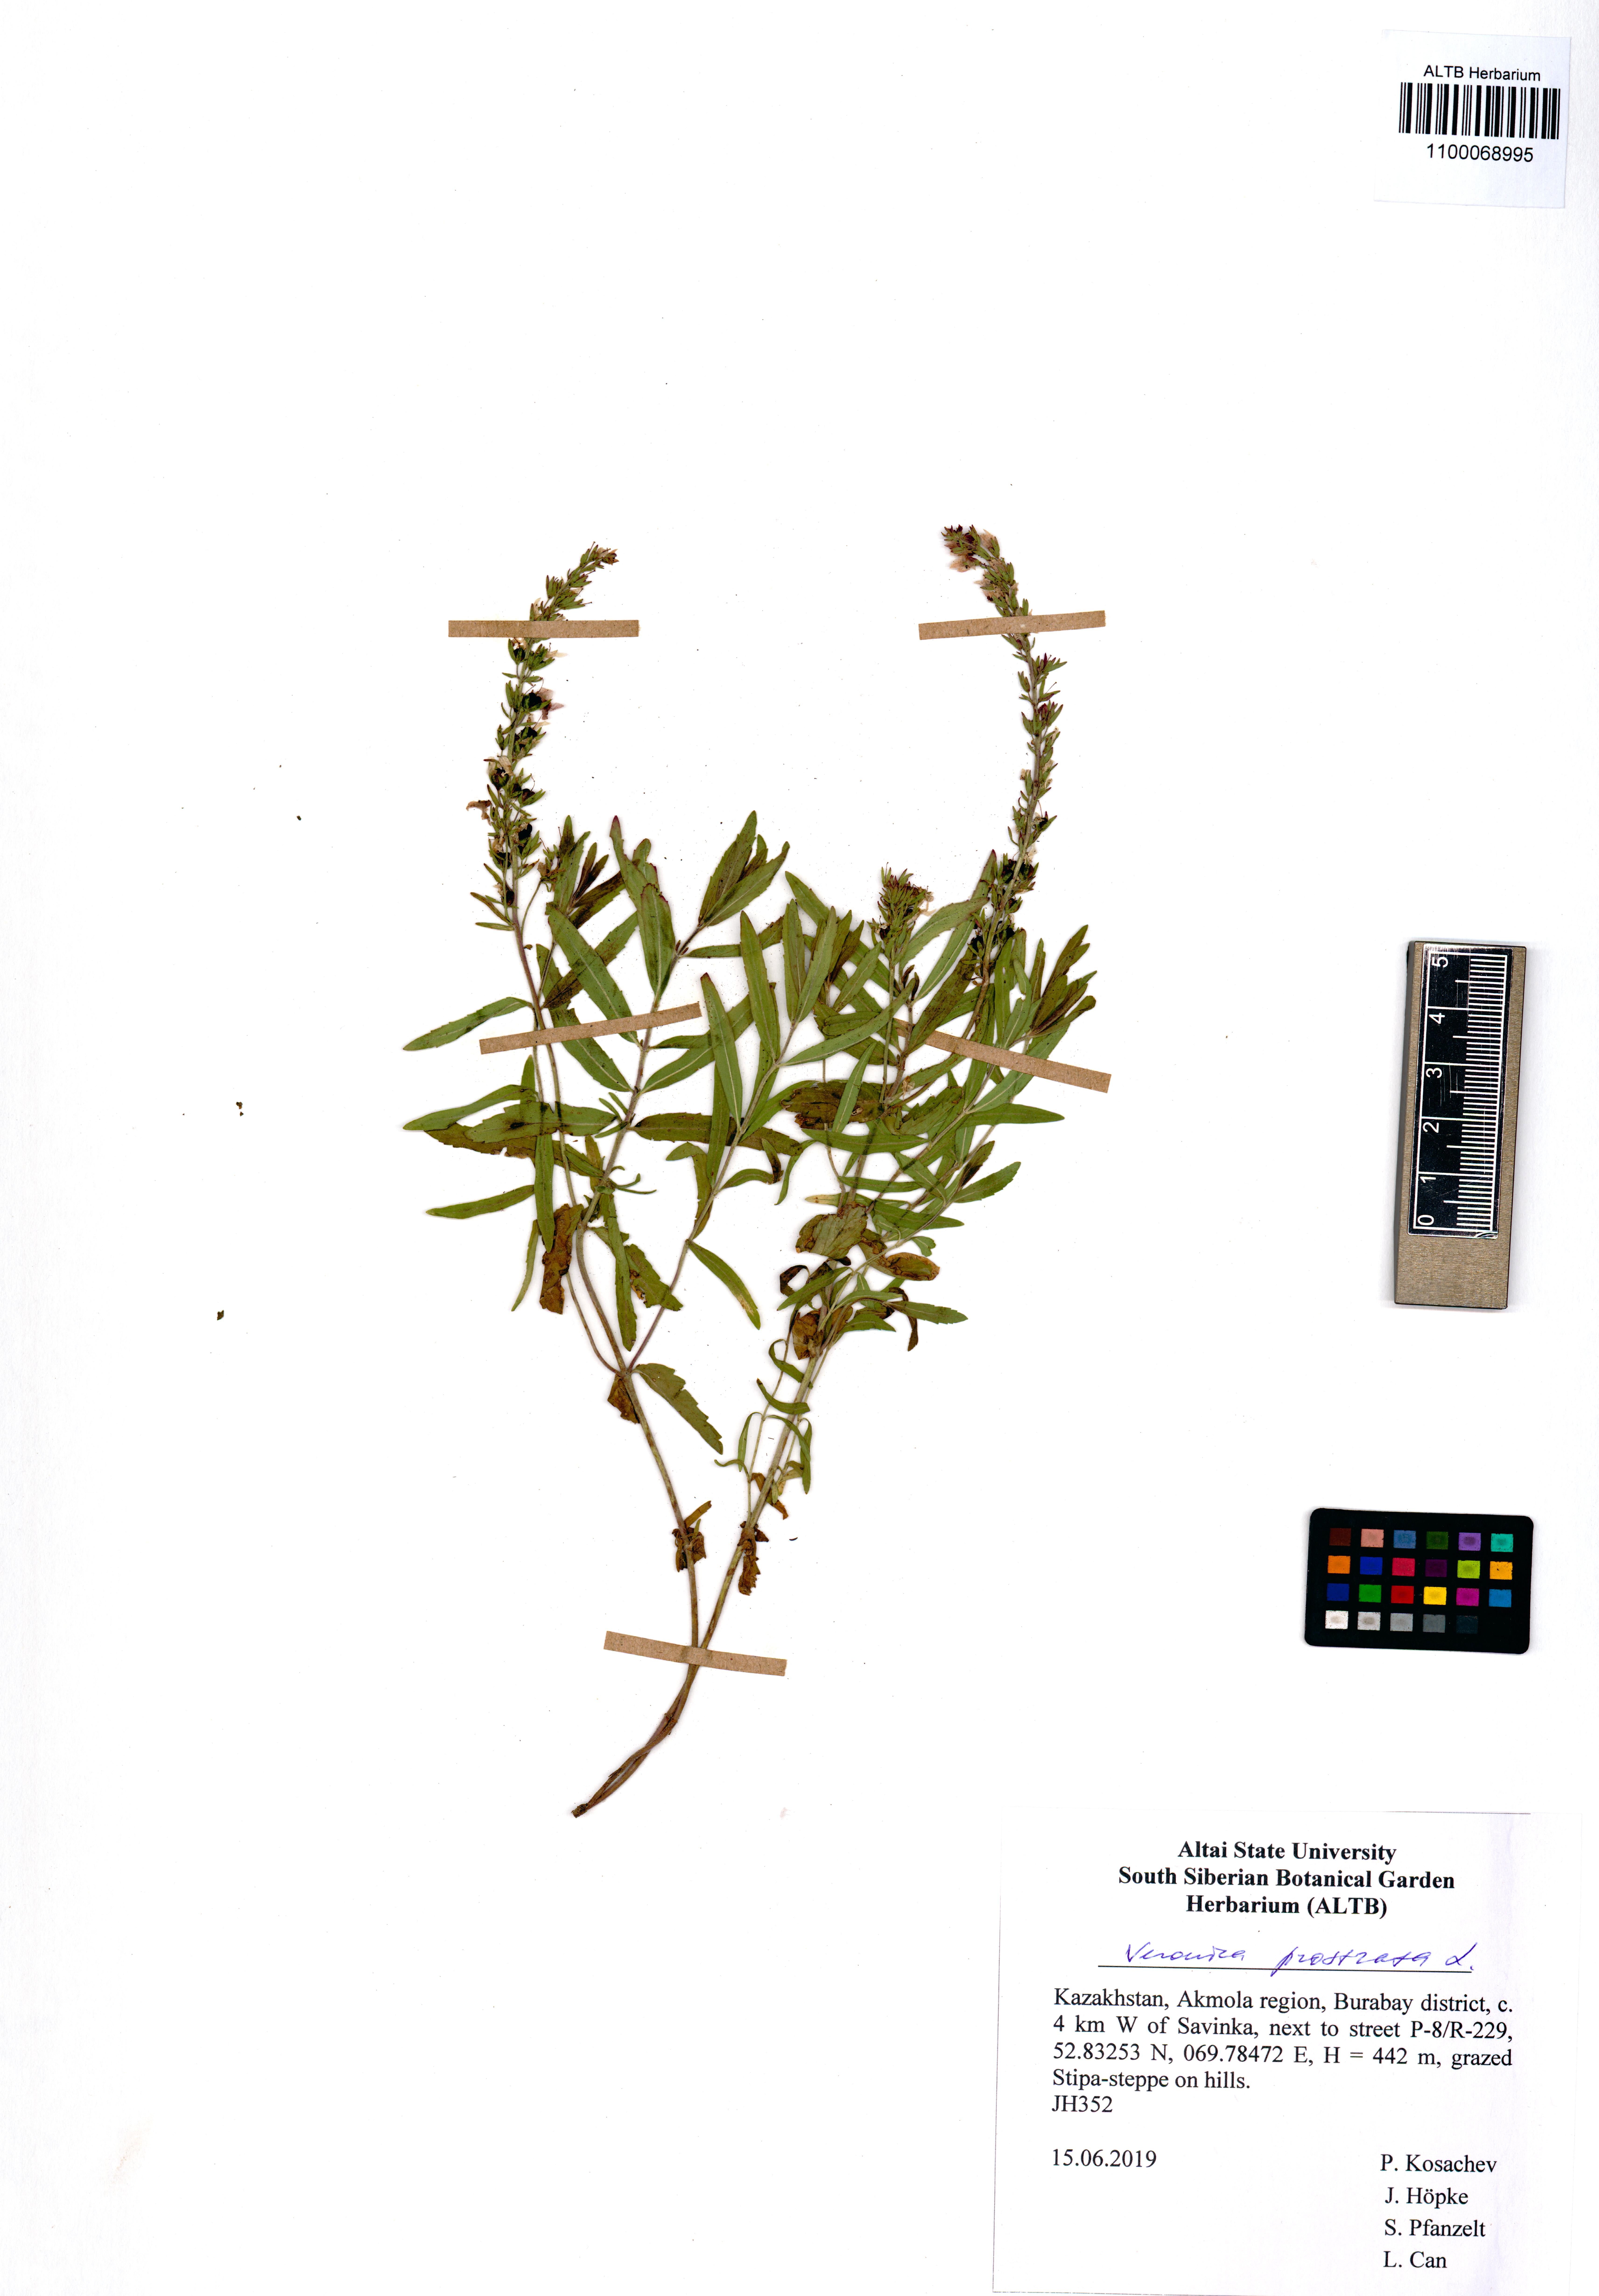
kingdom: Plantae
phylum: Tracheophyta
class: Magnoliopsida
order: Lamiales
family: Plantaginaceae
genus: Veronica
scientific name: Veronica prostrata
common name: Prostrate speedwell
